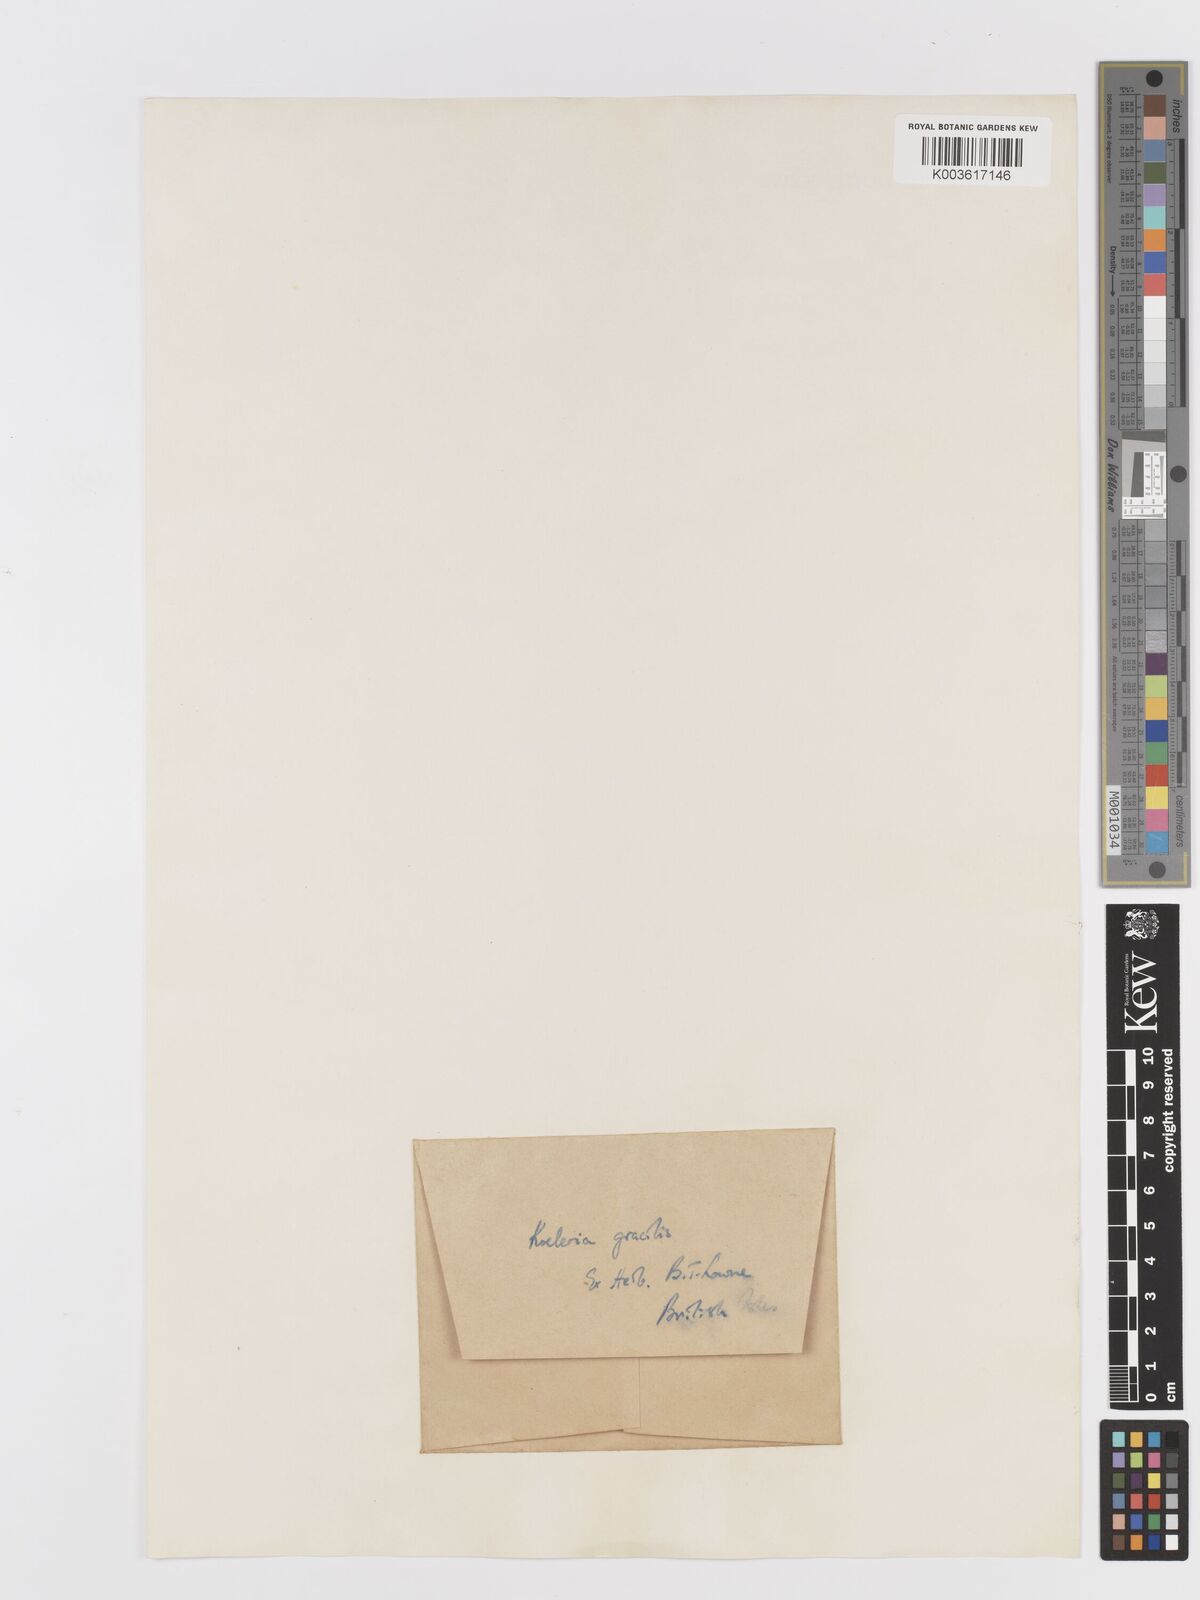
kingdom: Plantae
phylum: Tracheophyta
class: Liliopsida
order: Poales
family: Poaceae
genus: Koeleria
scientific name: Koeleria macrantha
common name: Crested hair-grass
